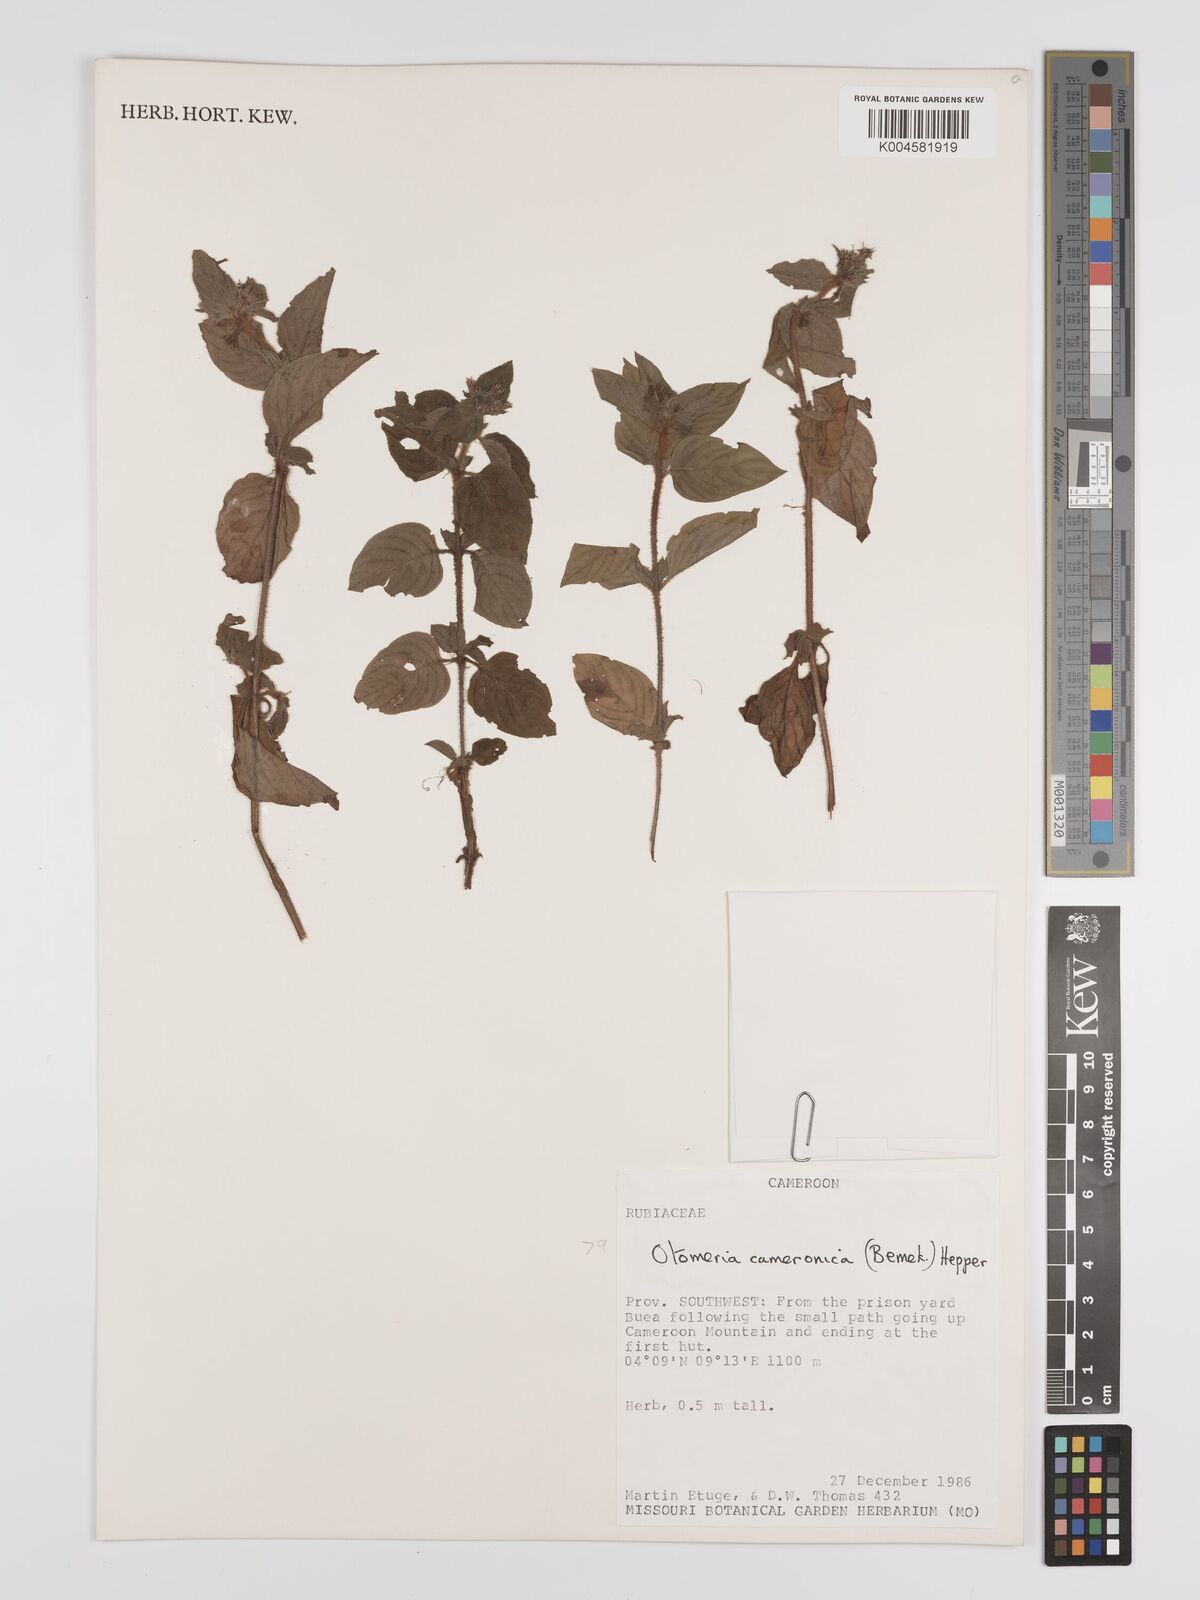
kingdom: Plantae
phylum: Tracheophyta
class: Magnoliopsida
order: Gentianales
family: Rubiaceae
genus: Otomeria
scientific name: Otomeria cameronica
